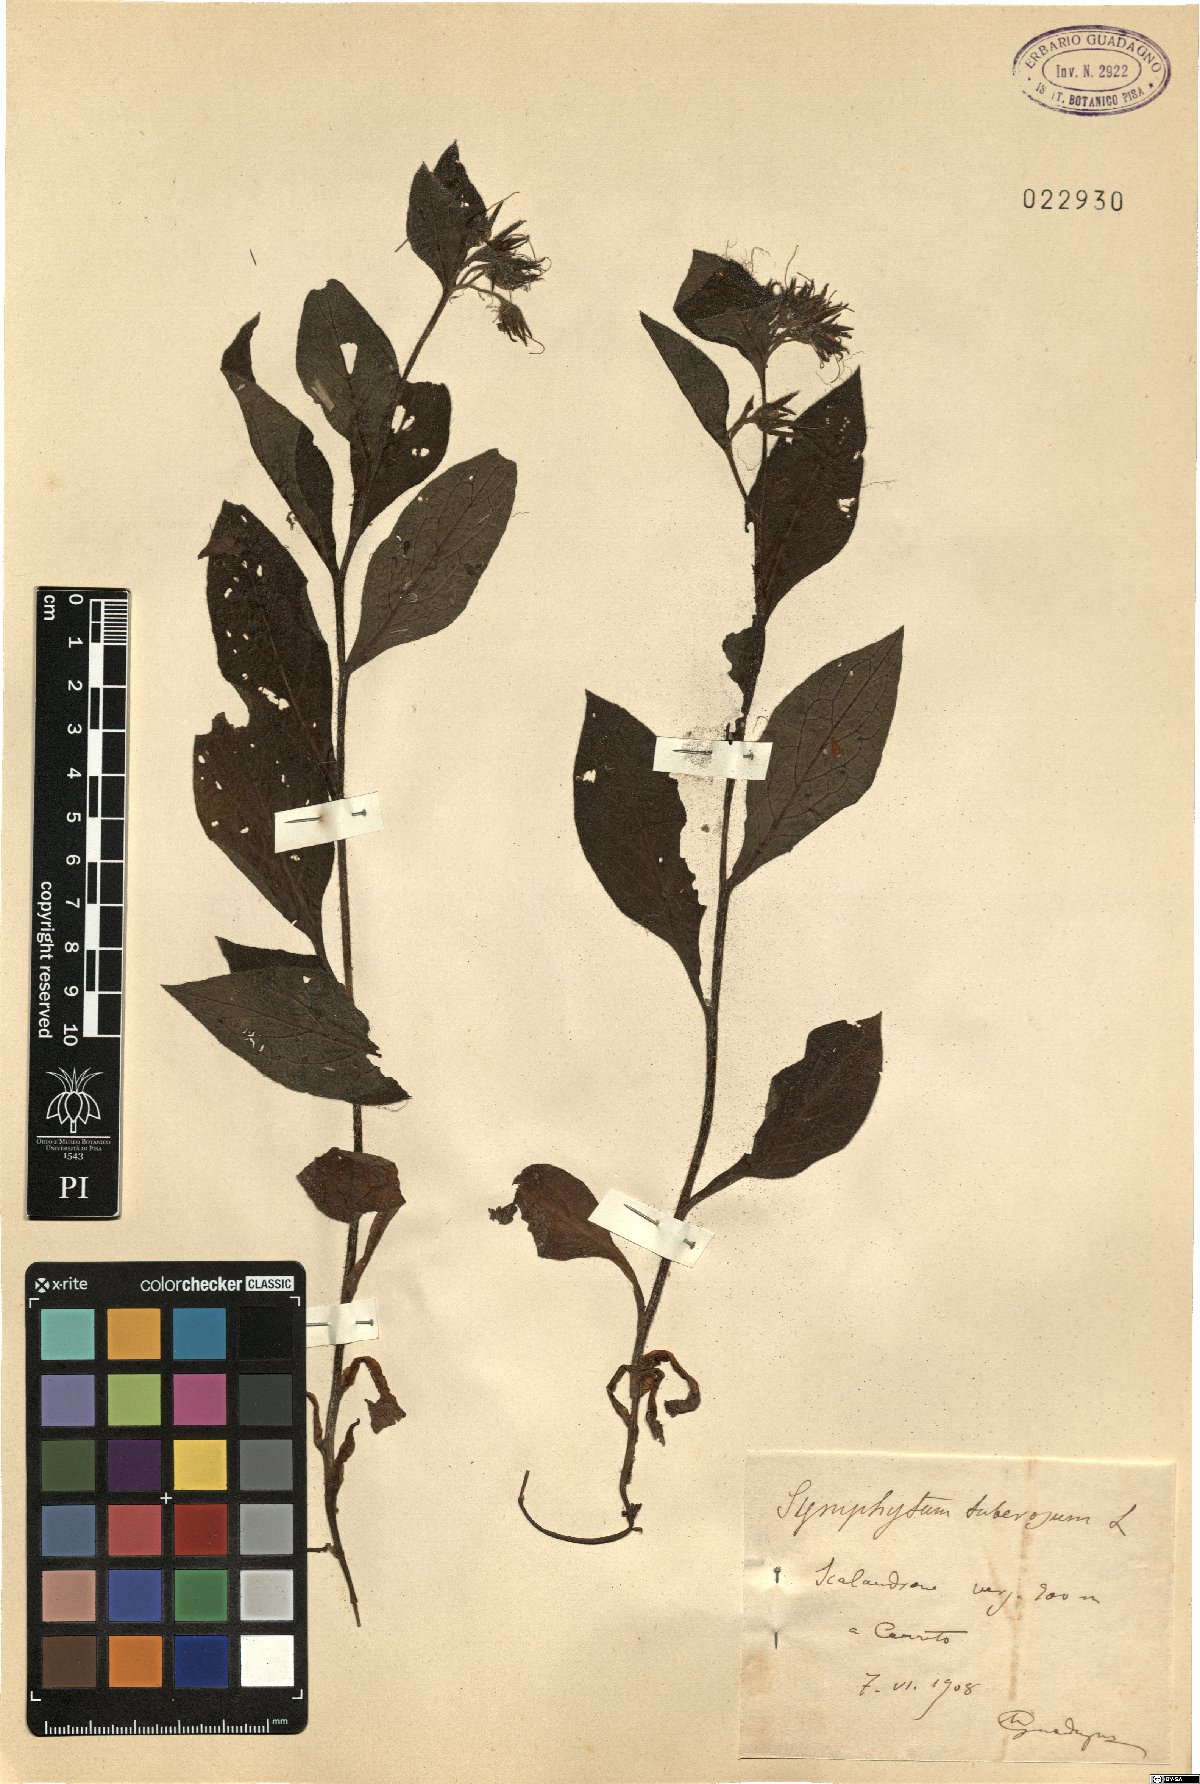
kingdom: Plantae
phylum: Tracheophyta
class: Magnoliopsida
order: Boraginales
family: Boraginaceae
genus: Symphytum
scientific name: Symphytum tuberosum
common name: Tuberous comfrey
